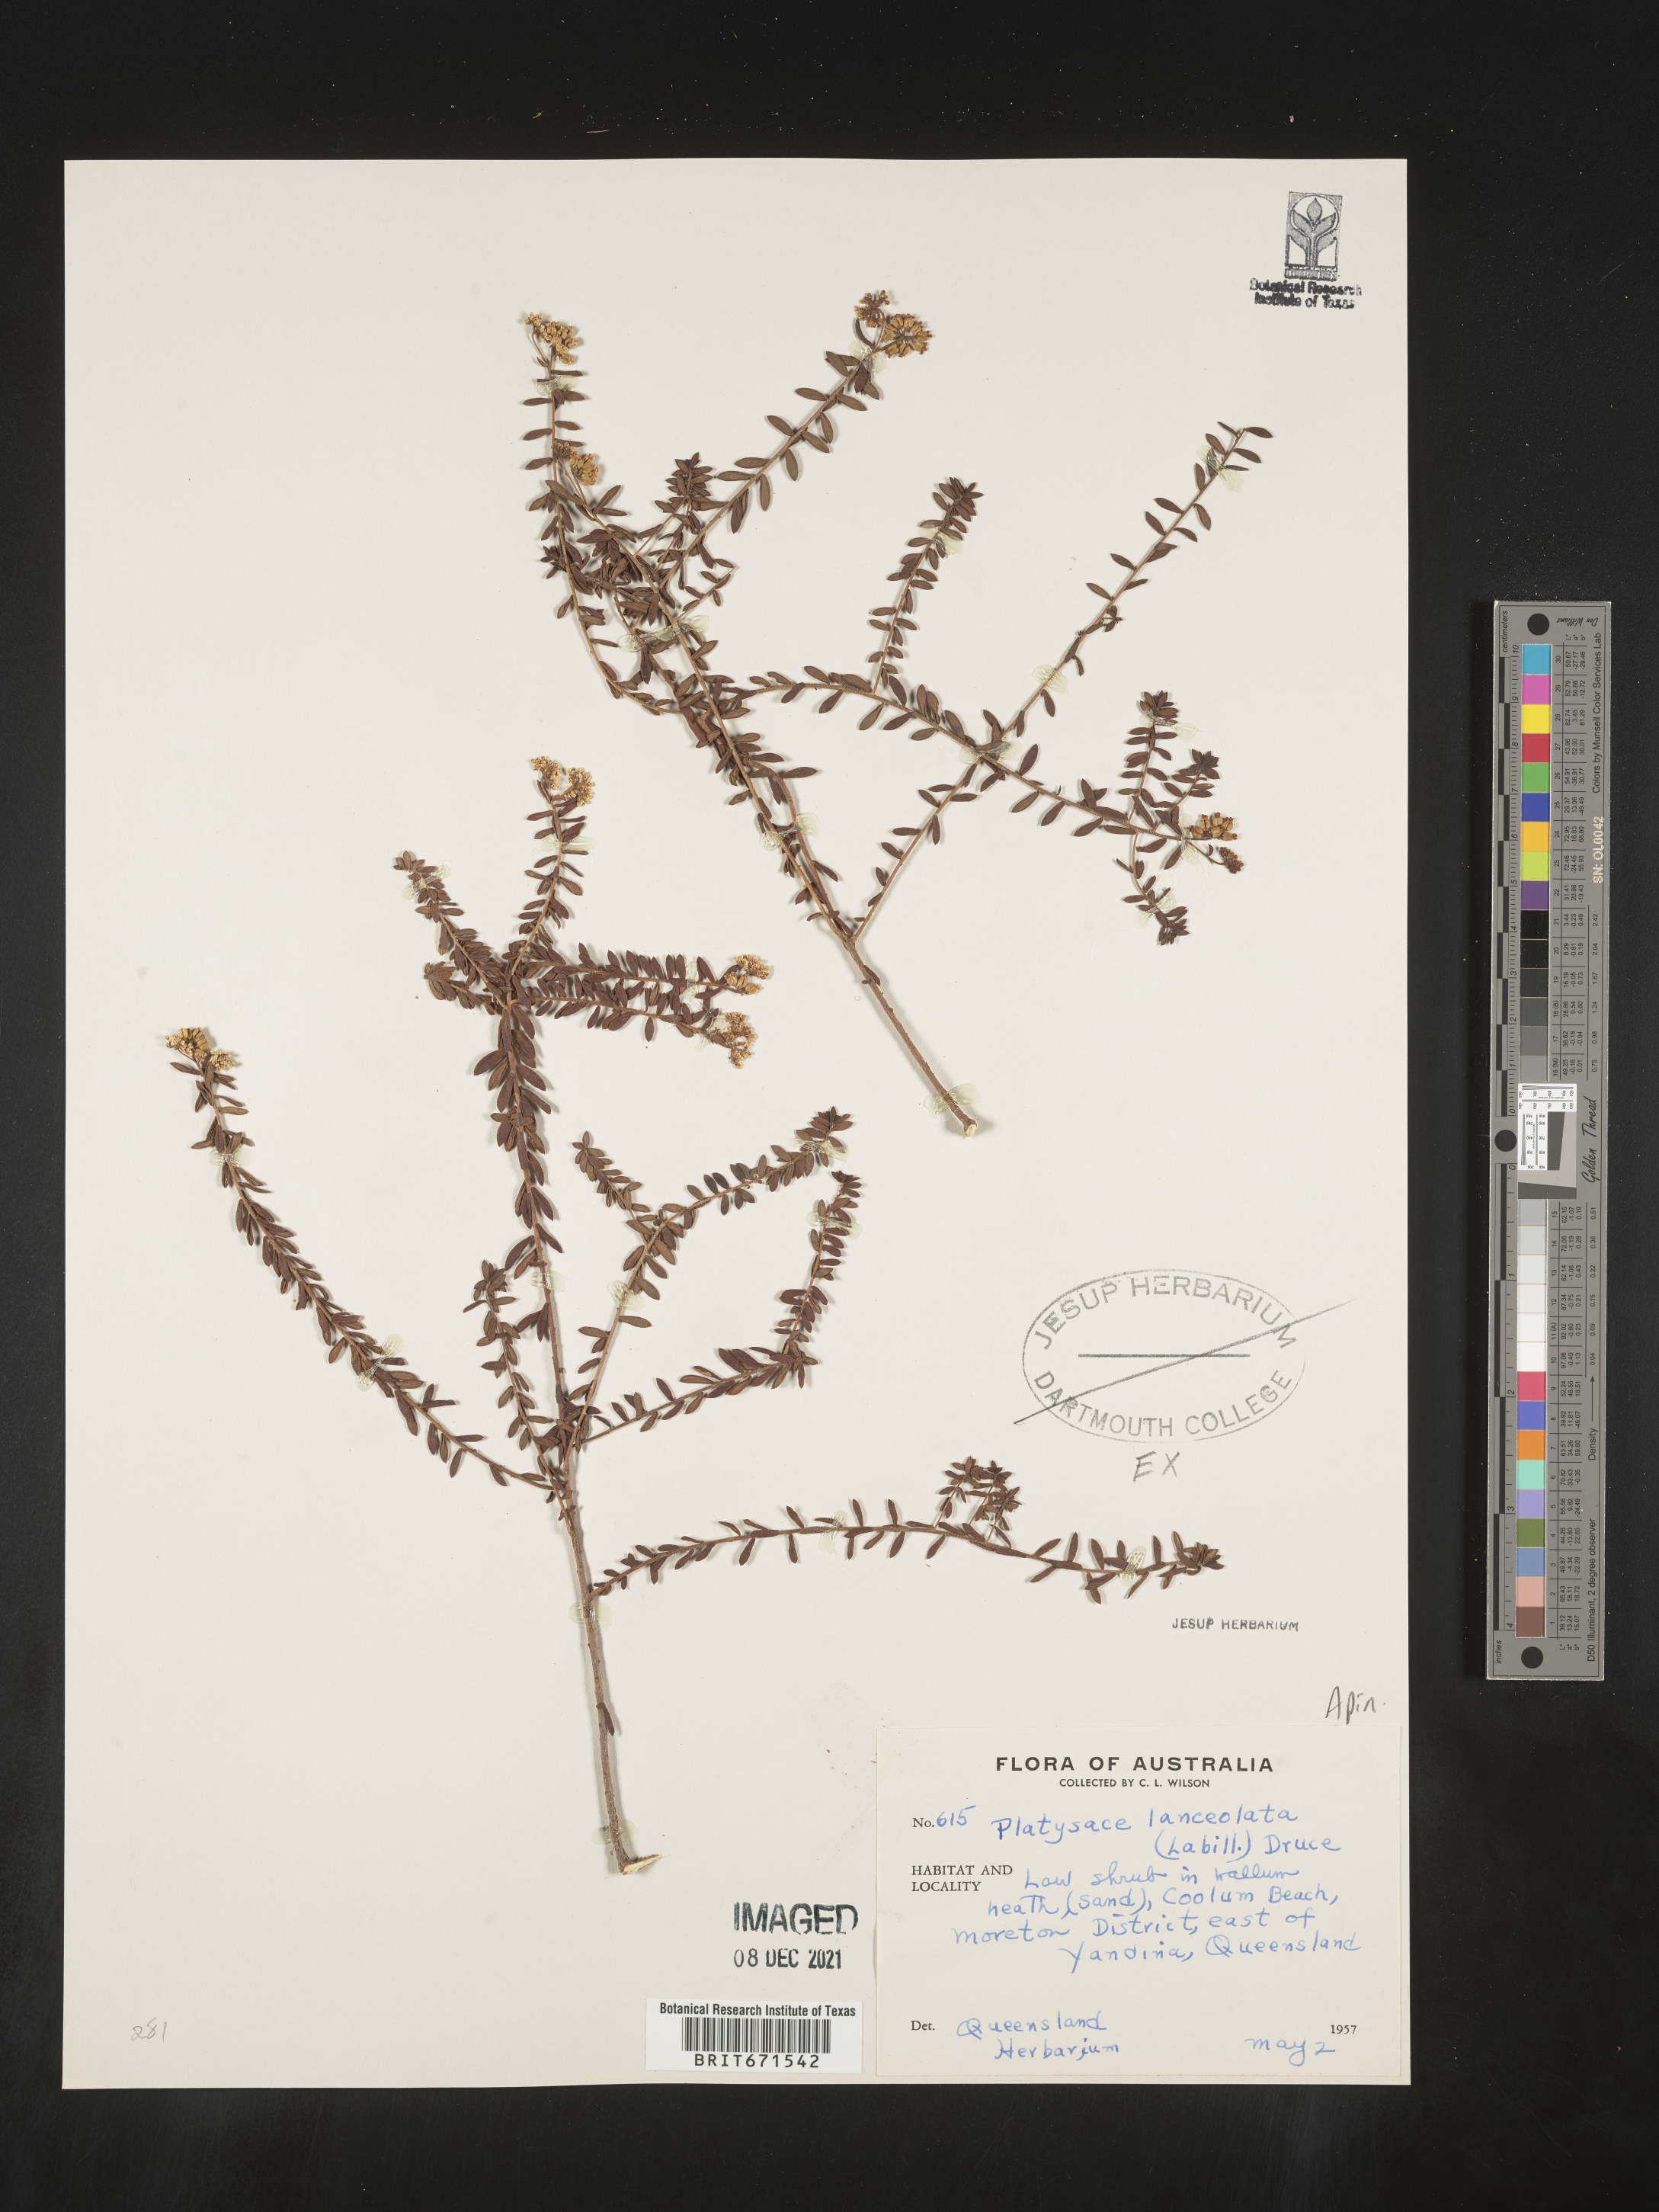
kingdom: Plantae
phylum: Tracheophyta
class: Magnoliopsida
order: Apiales
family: Apiaceae
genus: Platysace
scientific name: Platysace
